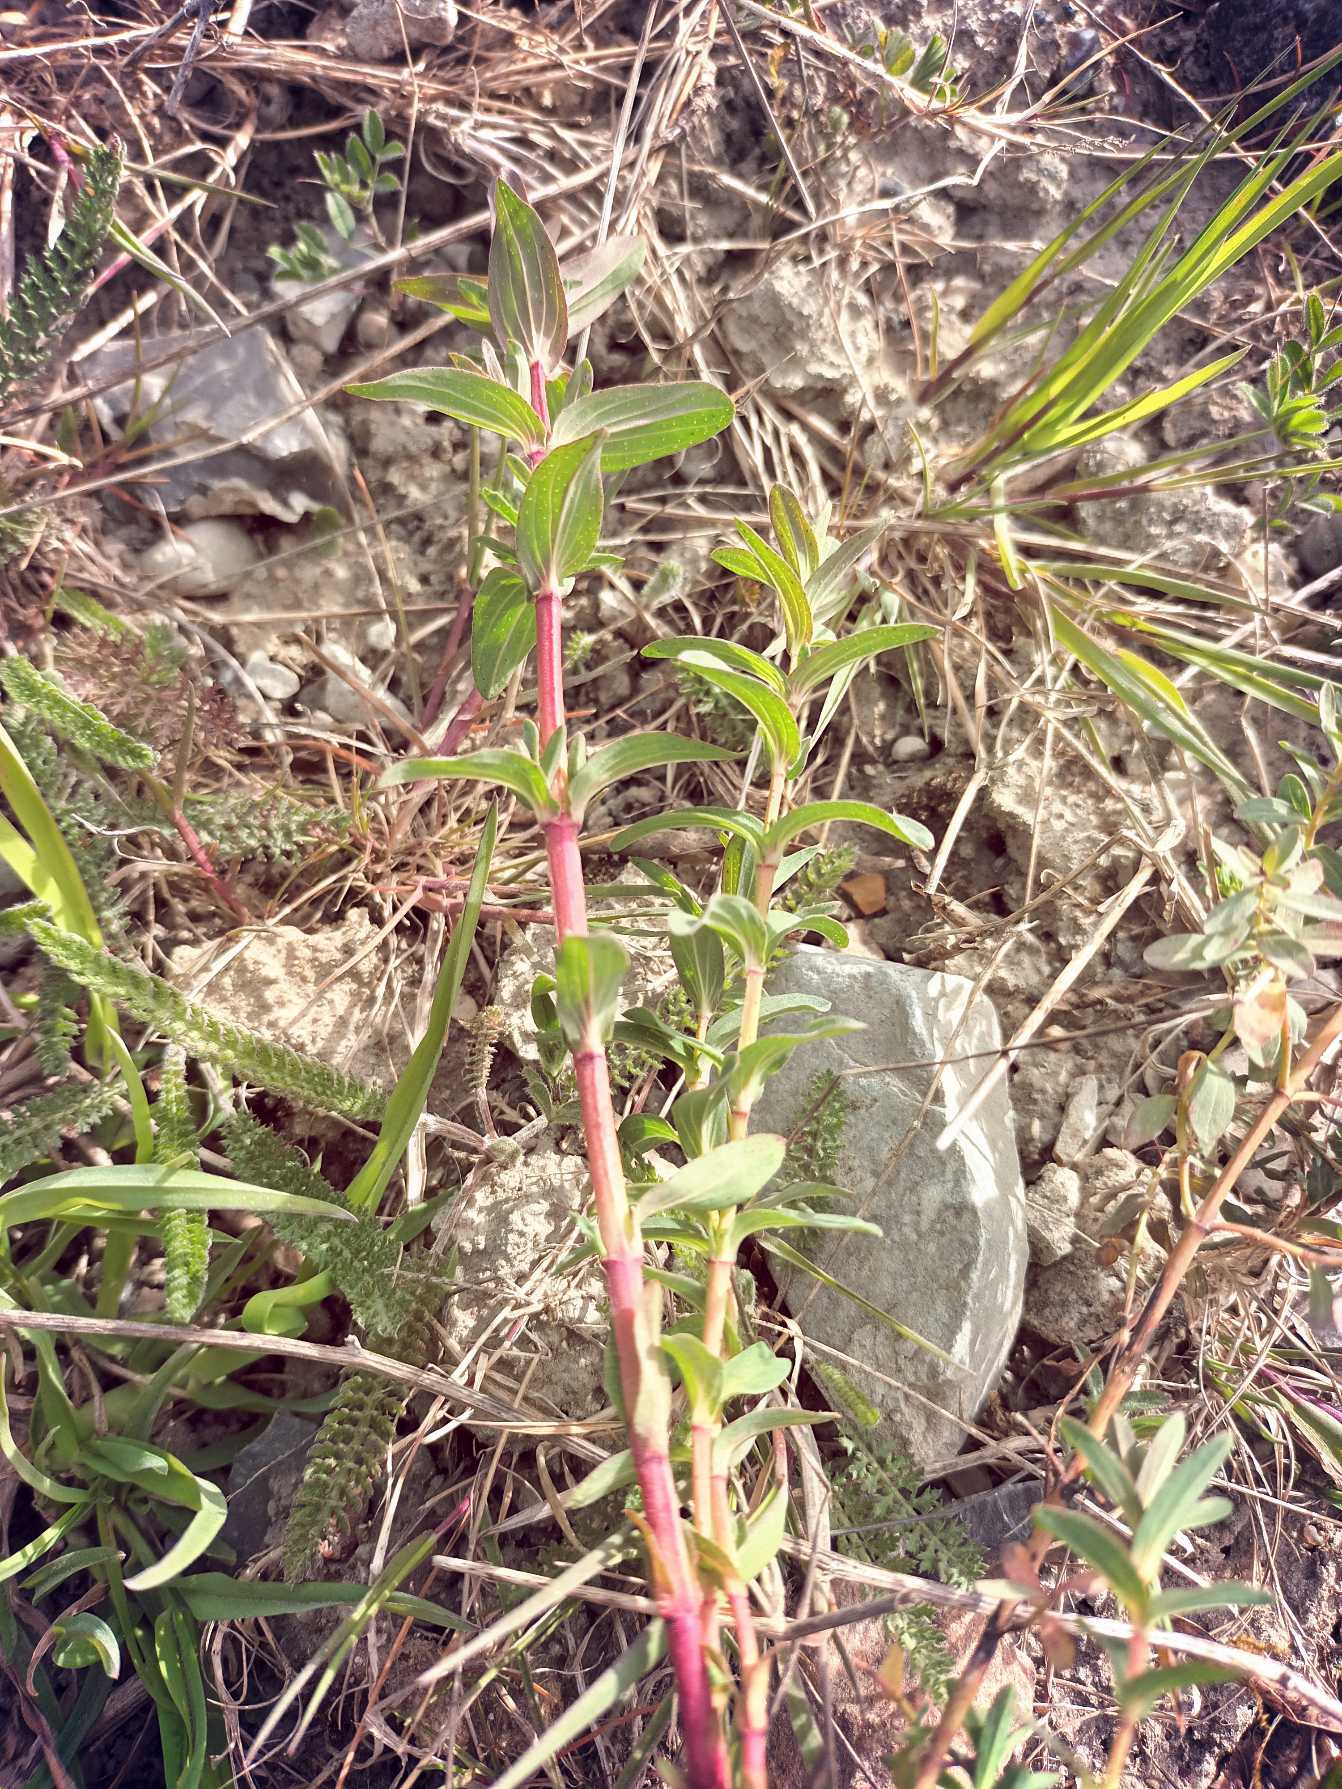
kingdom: Plantae
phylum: Tracheophyta
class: Magnoliopsida
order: Malpighiales
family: Hypericaceae
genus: Hypericum
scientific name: Hypericum perforatum
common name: Prikbladet perikon
